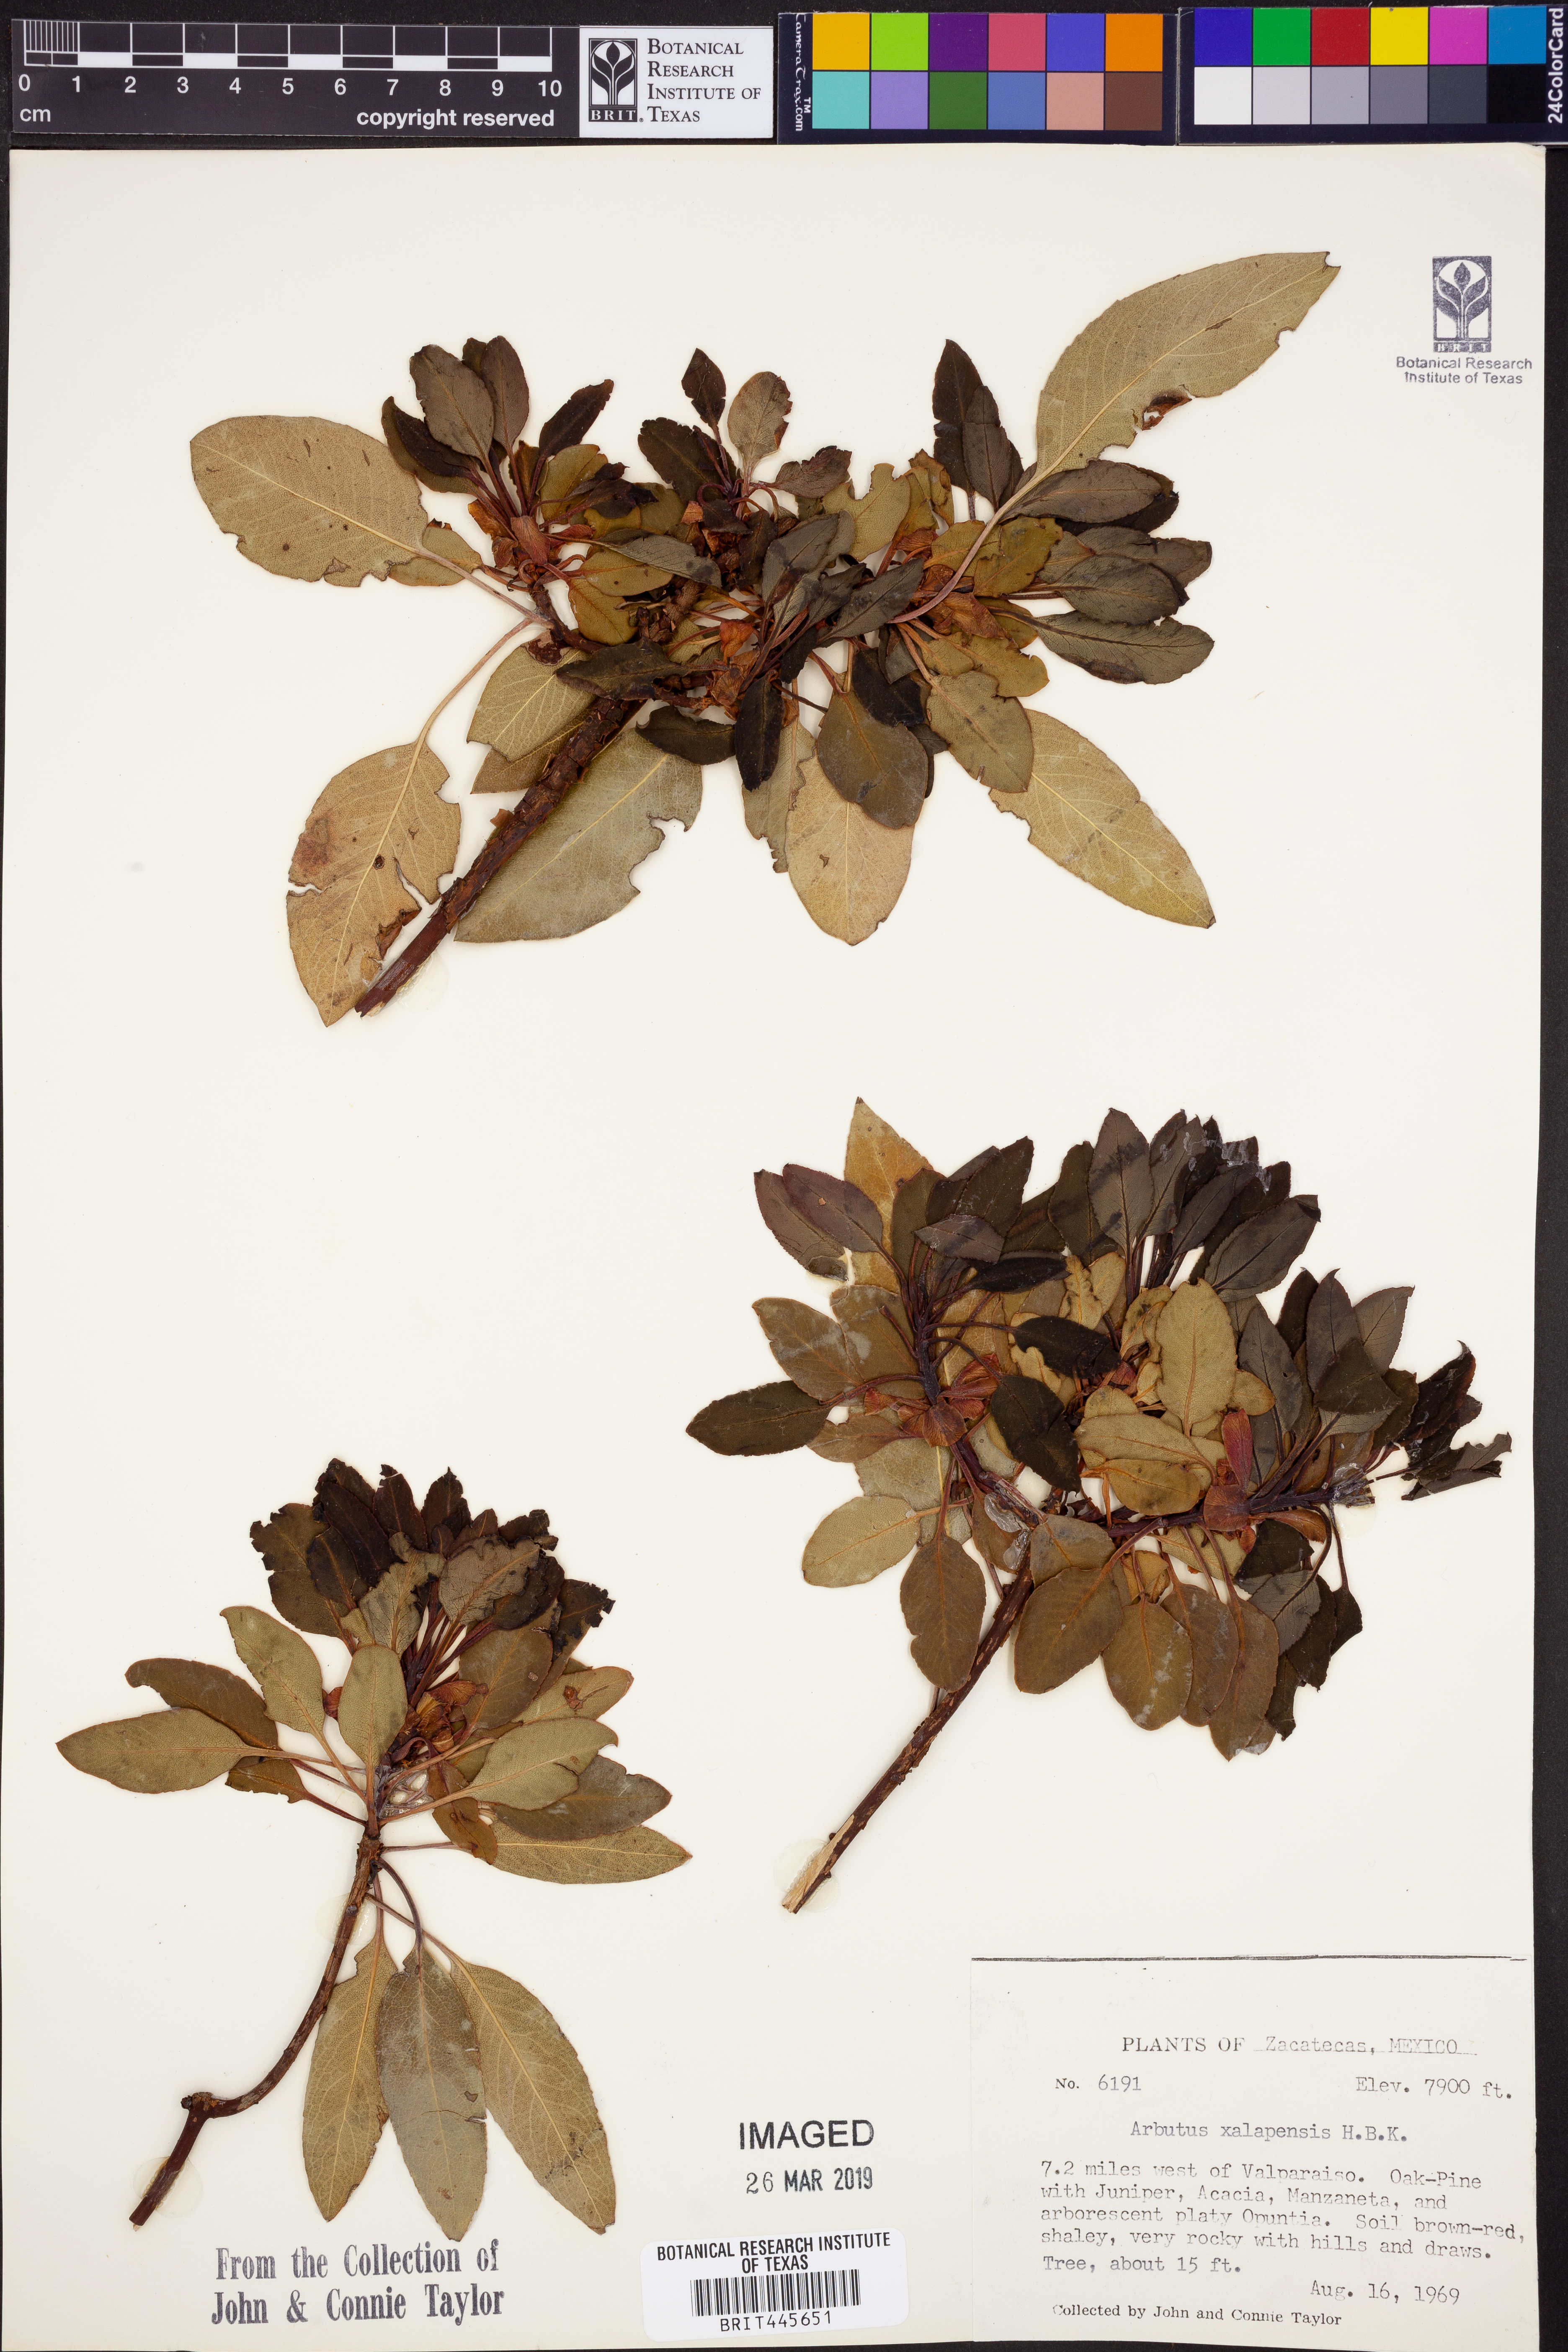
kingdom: Plantae
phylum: Tracheophyta
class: Magnoliopsida
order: Ericales
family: Ericaceae
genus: Arbutus
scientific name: Arbutus xalapensis
